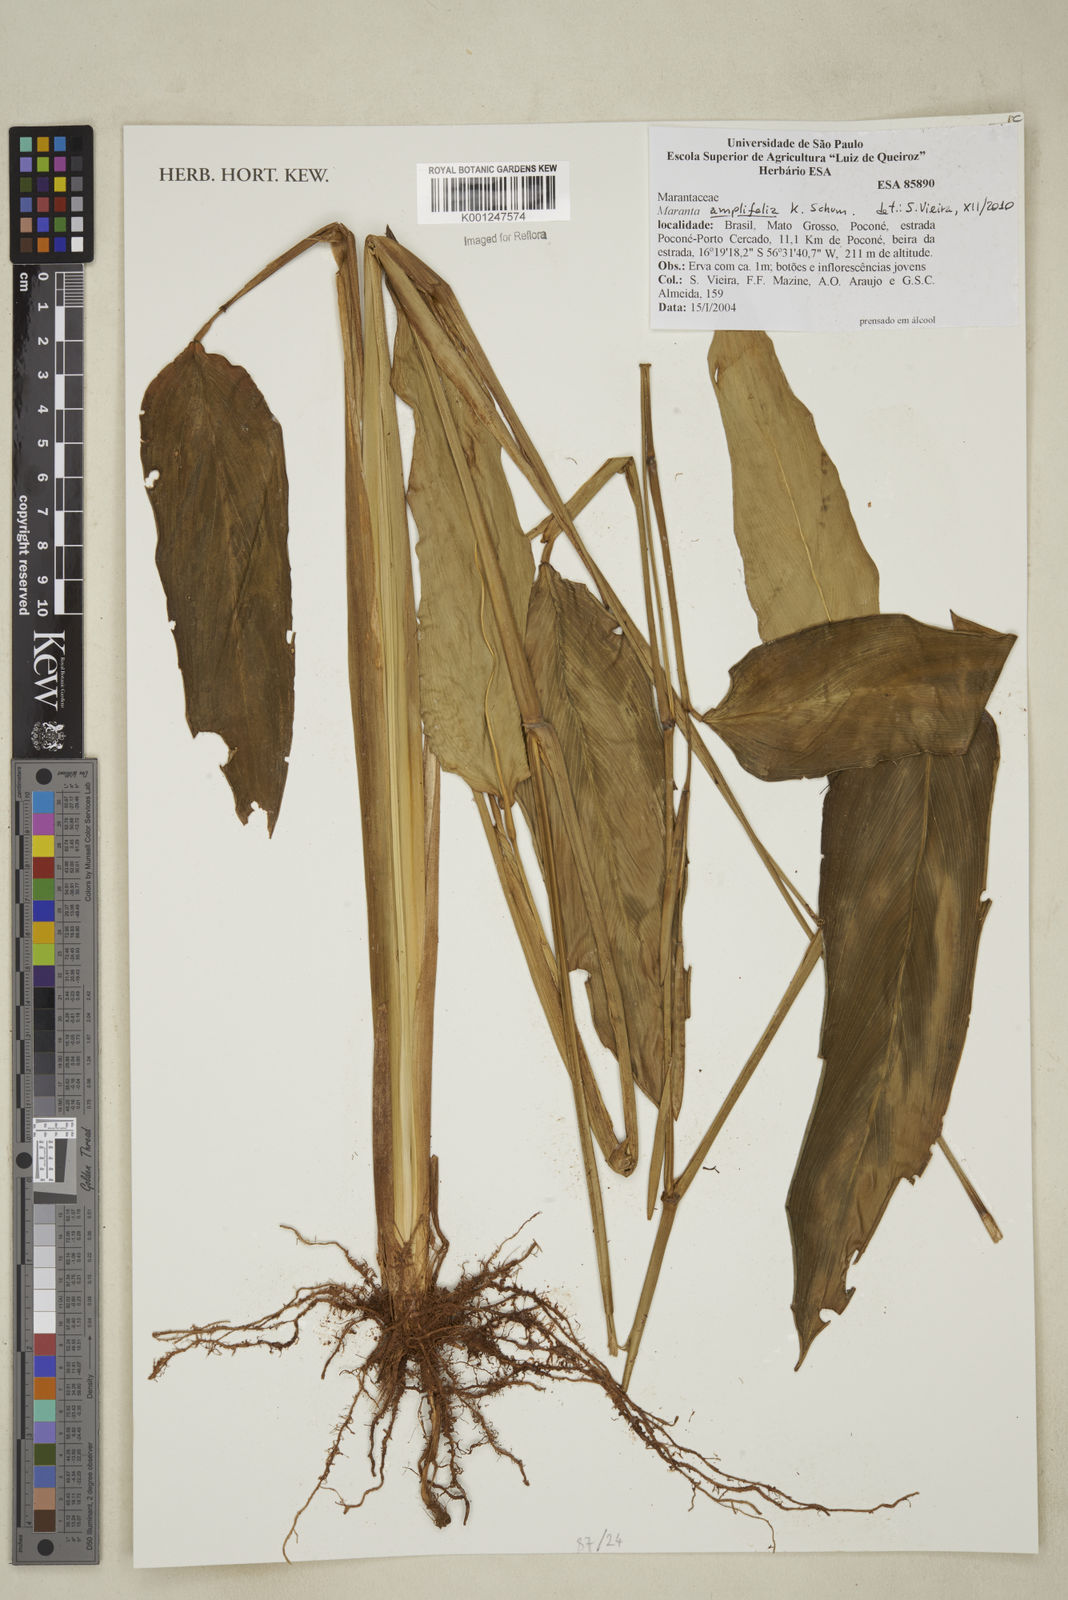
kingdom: Plantae
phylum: Tracheophyta
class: Liliopsida
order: Zingiberales
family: Marantaceae
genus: Maranta
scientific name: Maranta amplifolia
